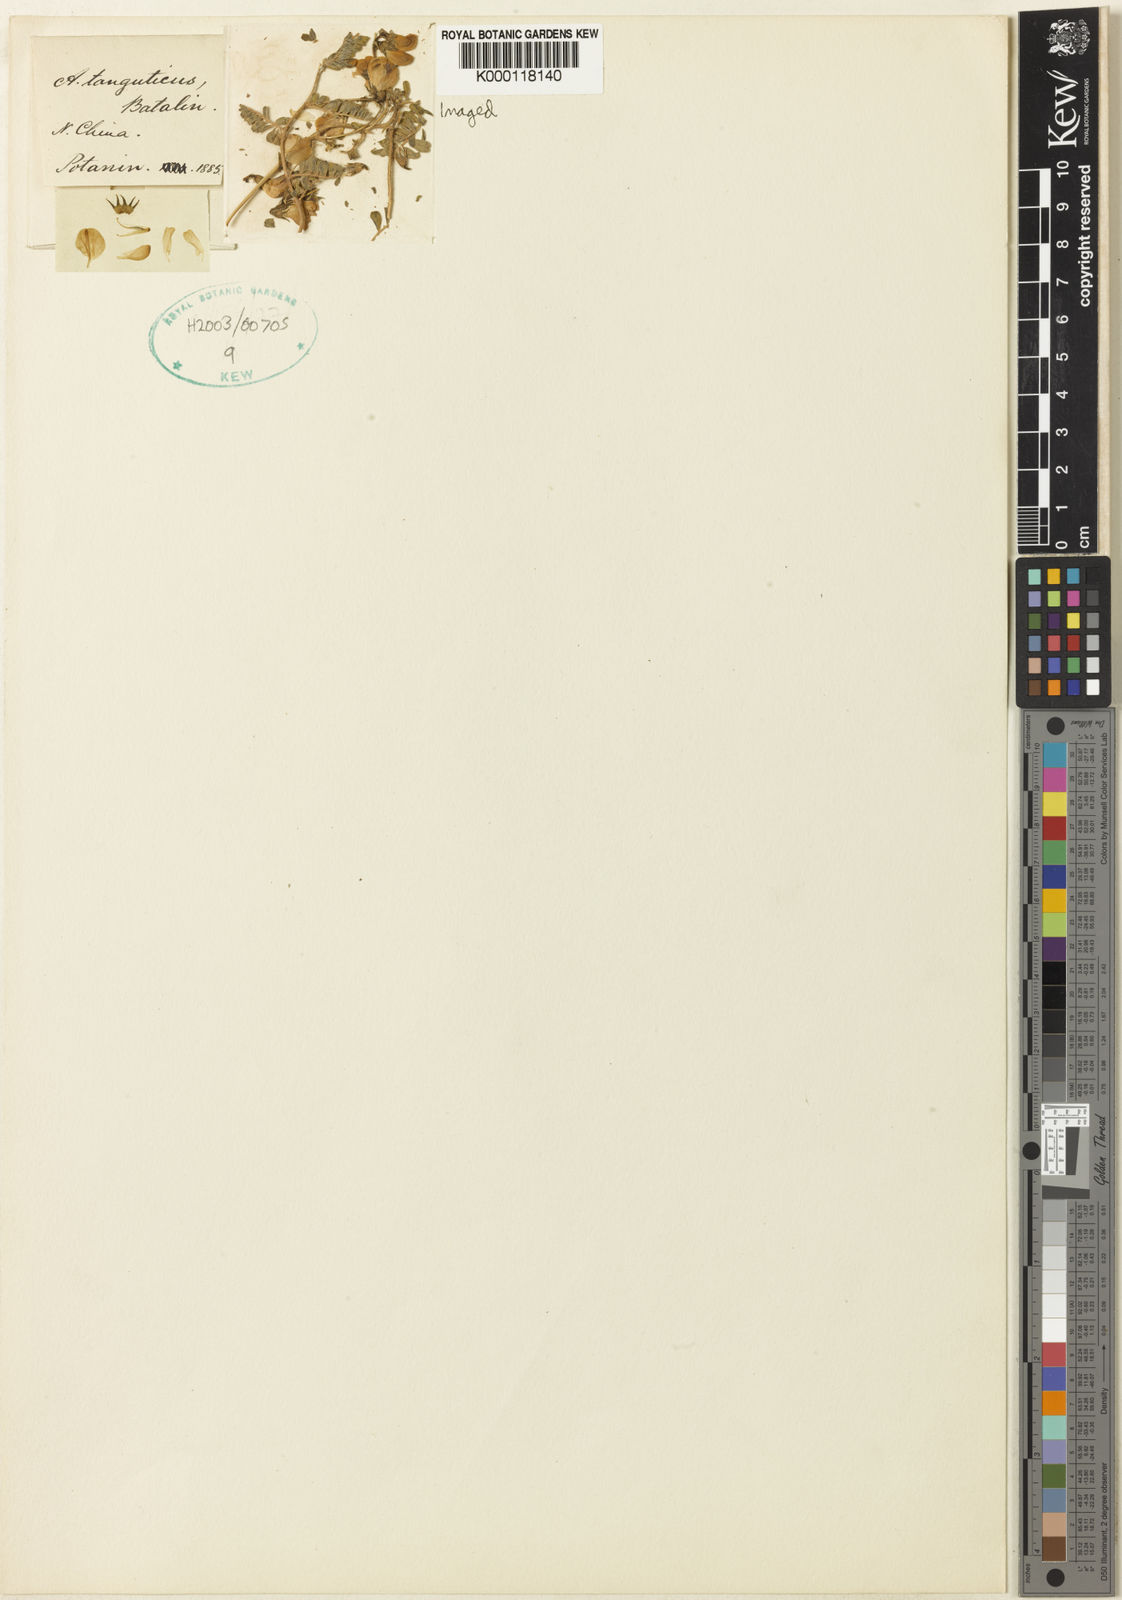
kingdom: Plantae
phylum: Tracheophyta
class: Magnoliopsida
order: Fabales
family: Fabaceae
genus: Astragalus
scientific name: Astragalus
